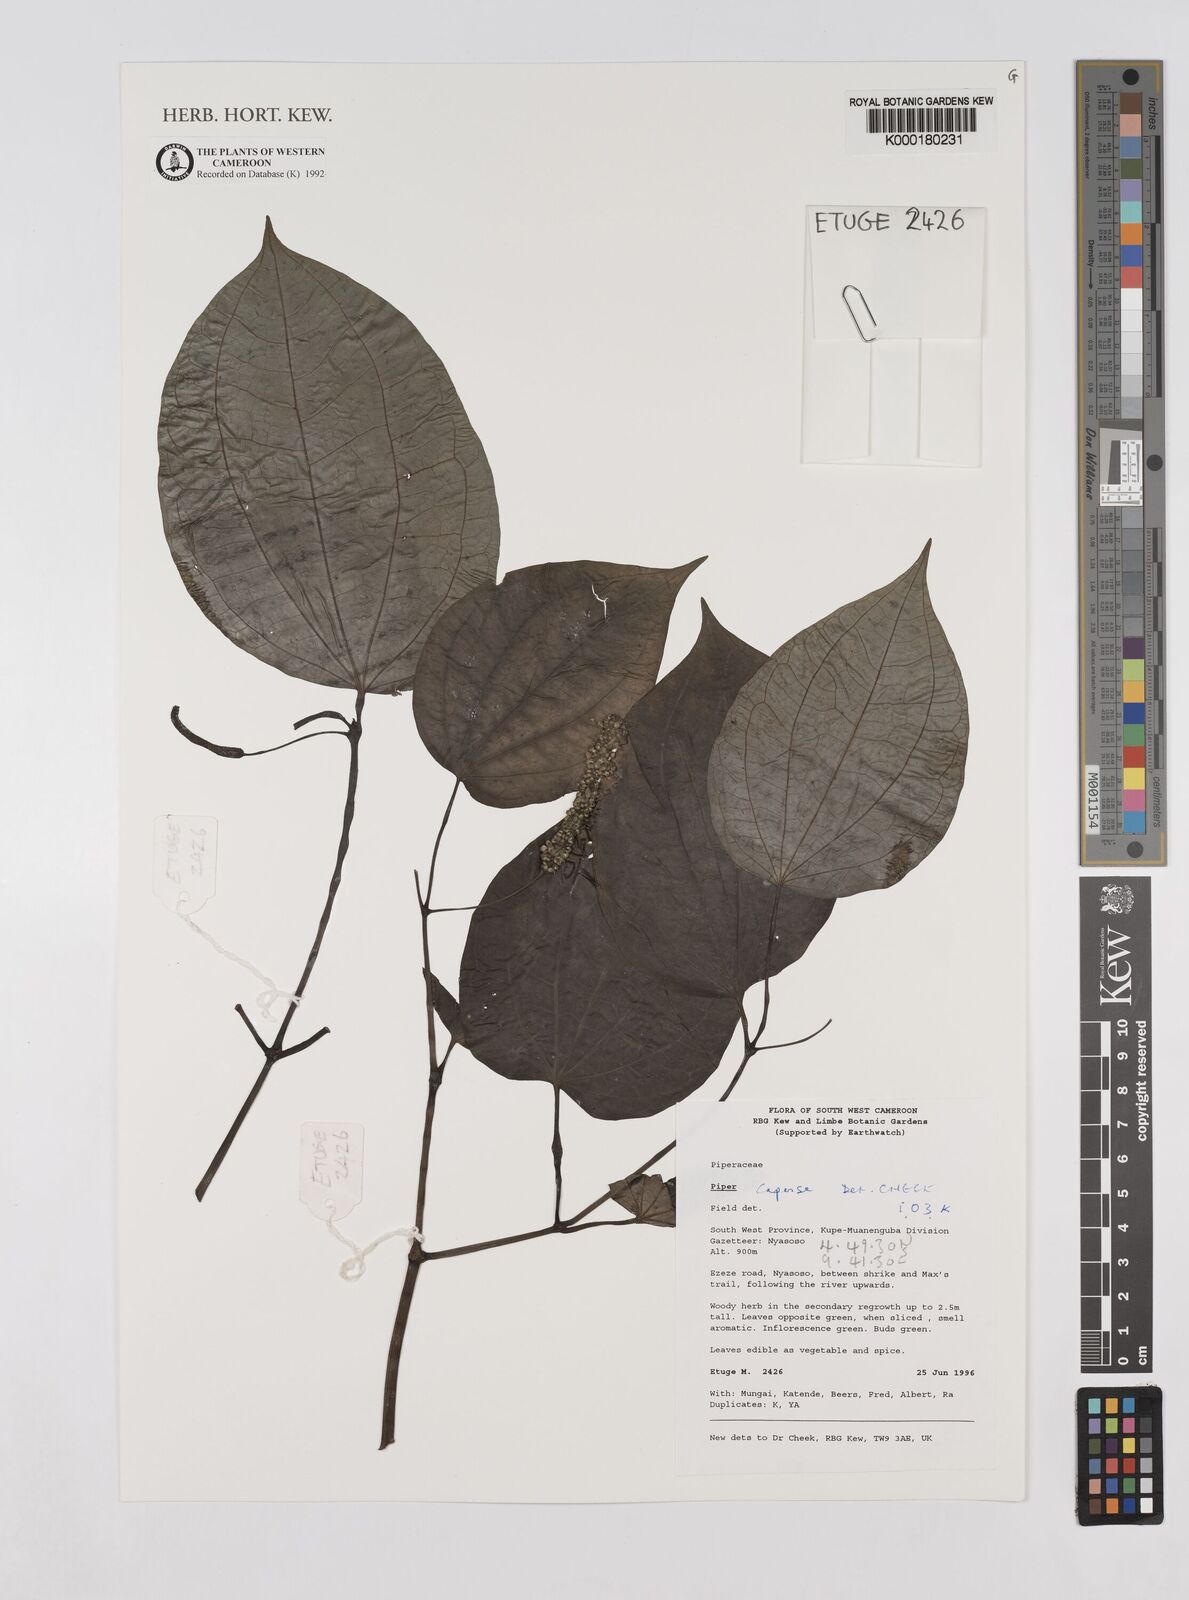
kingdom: Plantae
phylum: Tracheophyta
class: Magnoliopsida
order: Piperales
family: Piperaceae
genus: Piper
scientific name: Piper capense
